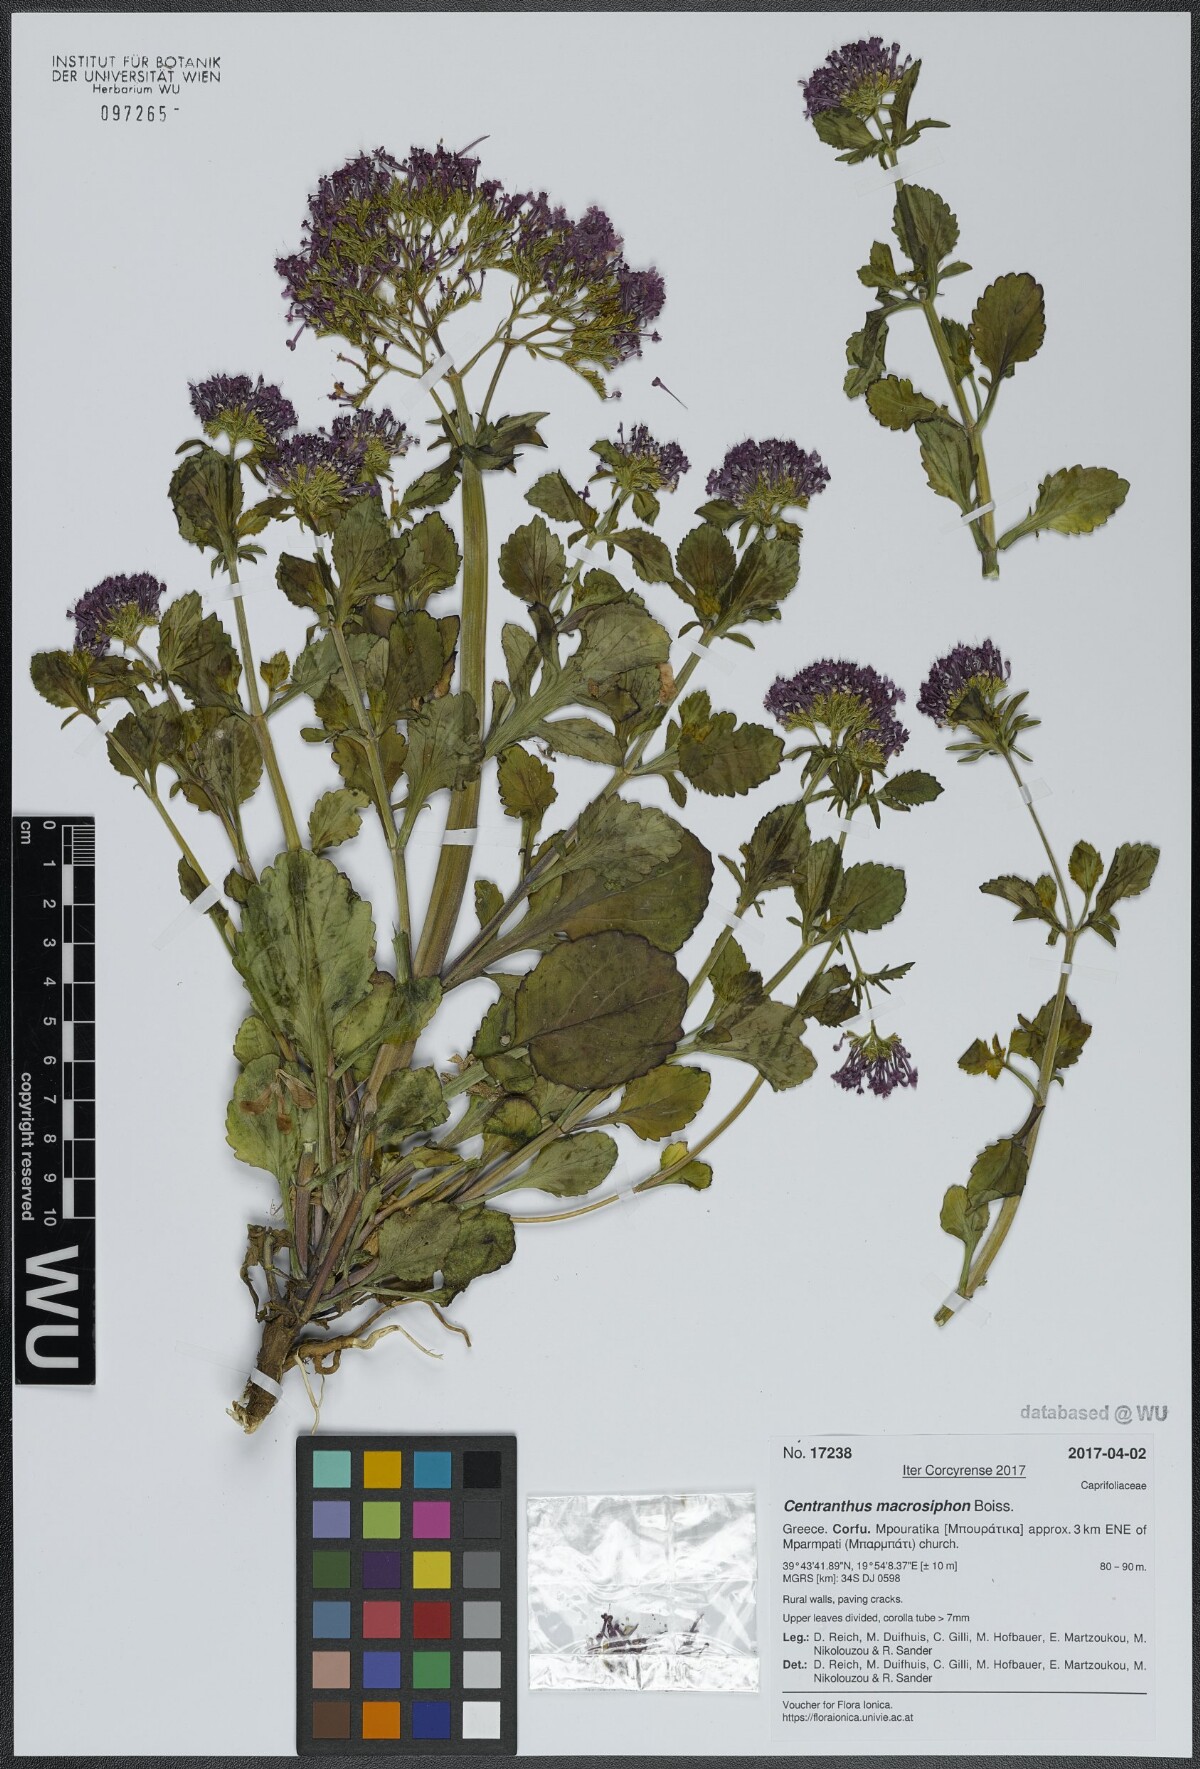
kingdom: Plantae
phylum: Tracheophyta
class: Magnoliopsida
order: Dipsacales
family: Caprifoliaceae
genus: Centranthus
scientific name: Centranthus macrosiphon
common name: Spanish-valerian
